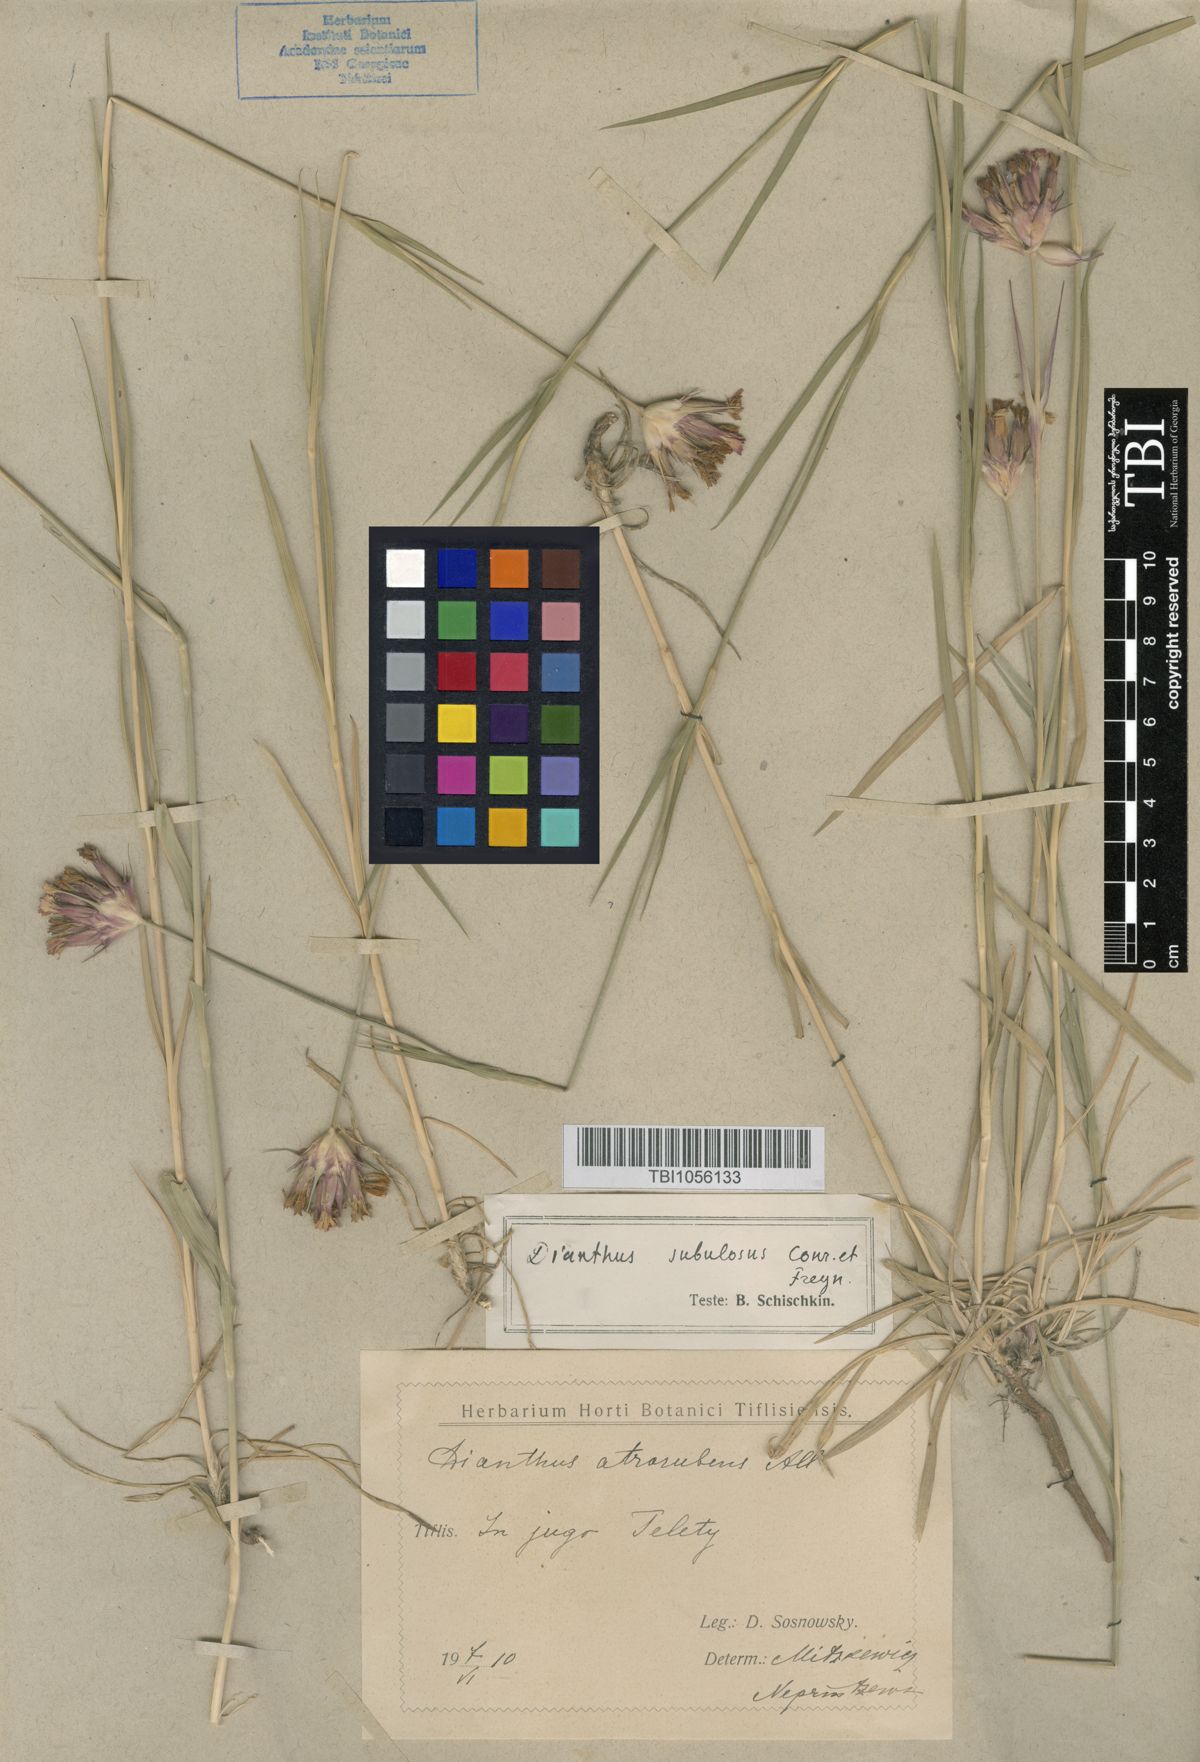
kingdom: Plantae
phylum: Tracheophyta
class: Magnoliopsida
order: Caryophyllales
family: Caryophyllaceae
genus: Dianthus
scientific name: Dianthus subulosus
